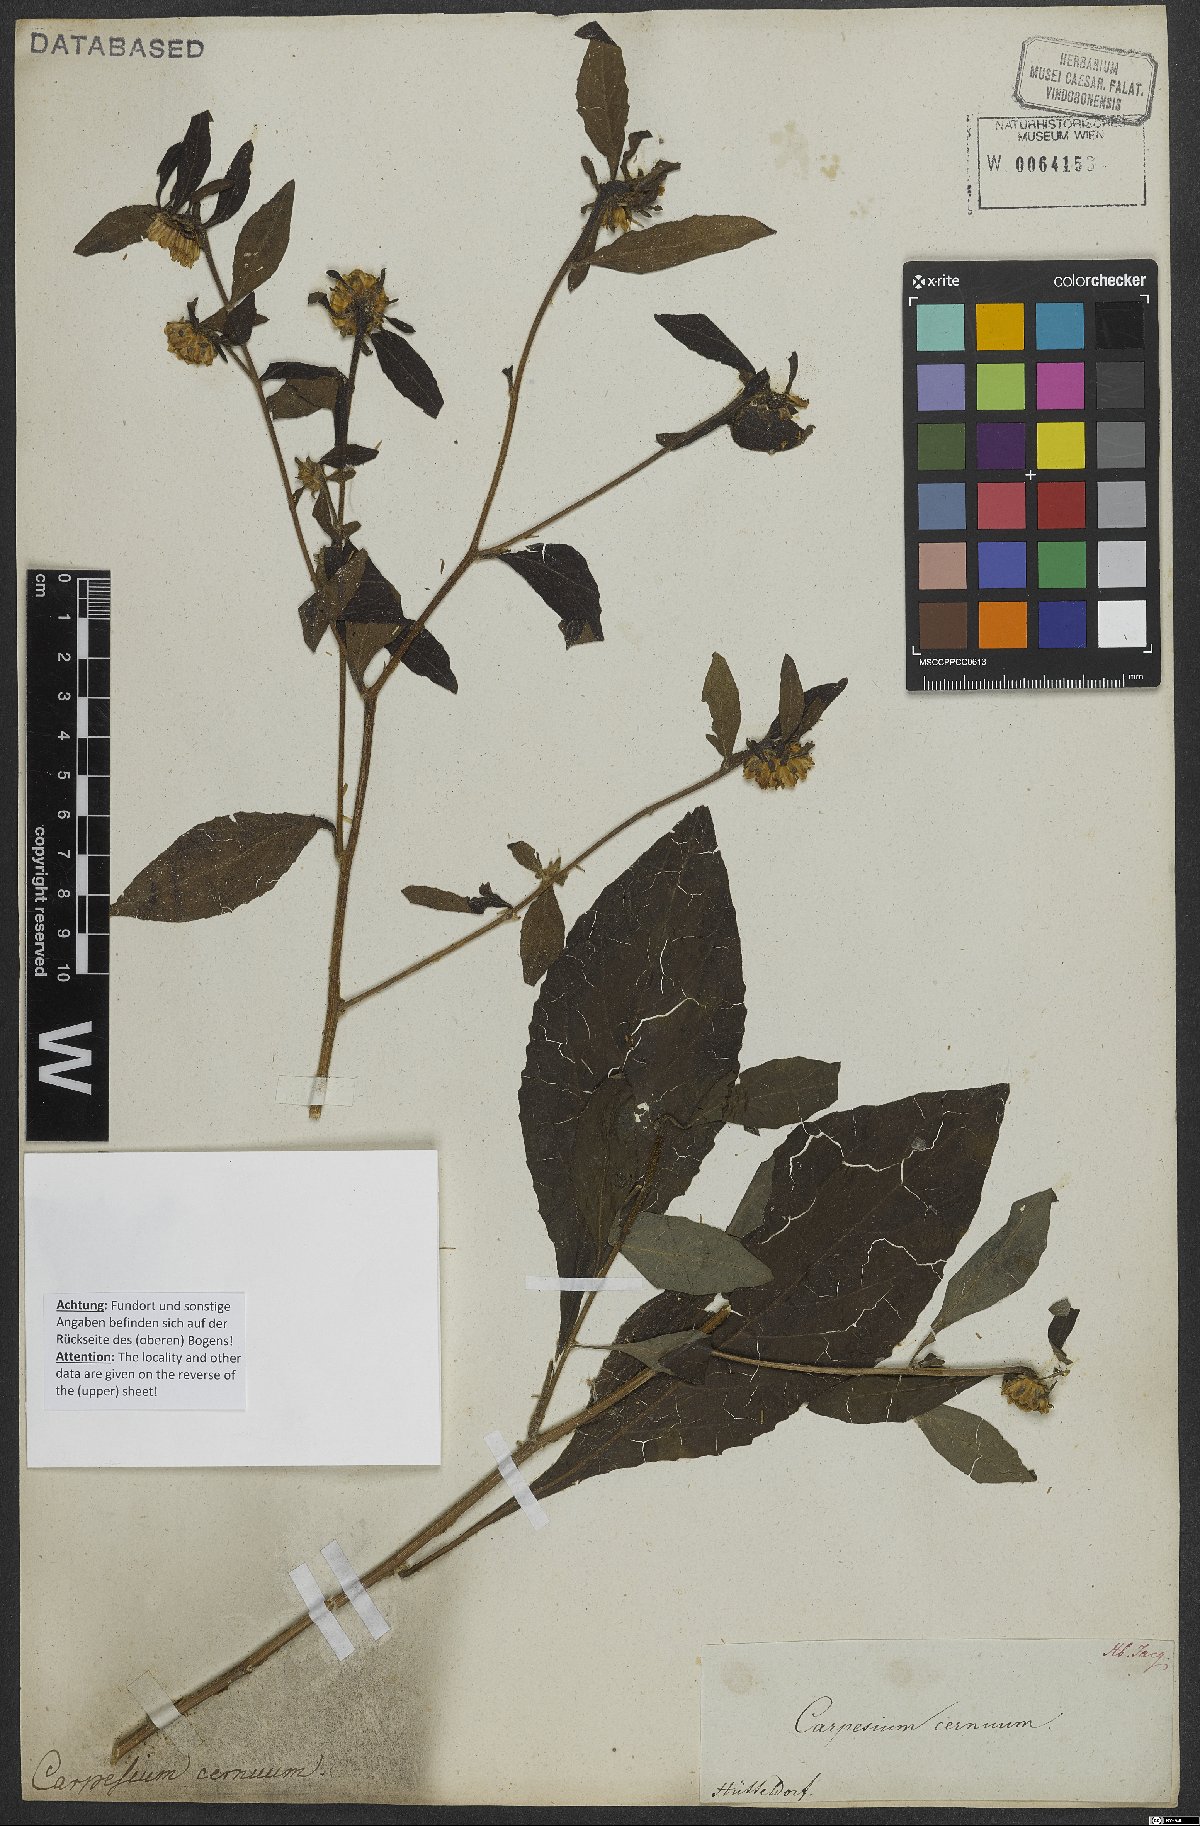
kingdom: Plantae
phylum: Tracheophyta
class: Magnoliopsida
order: Asterales
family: Asteraceae
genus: Carpesium
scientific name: Carpesium cernuum
